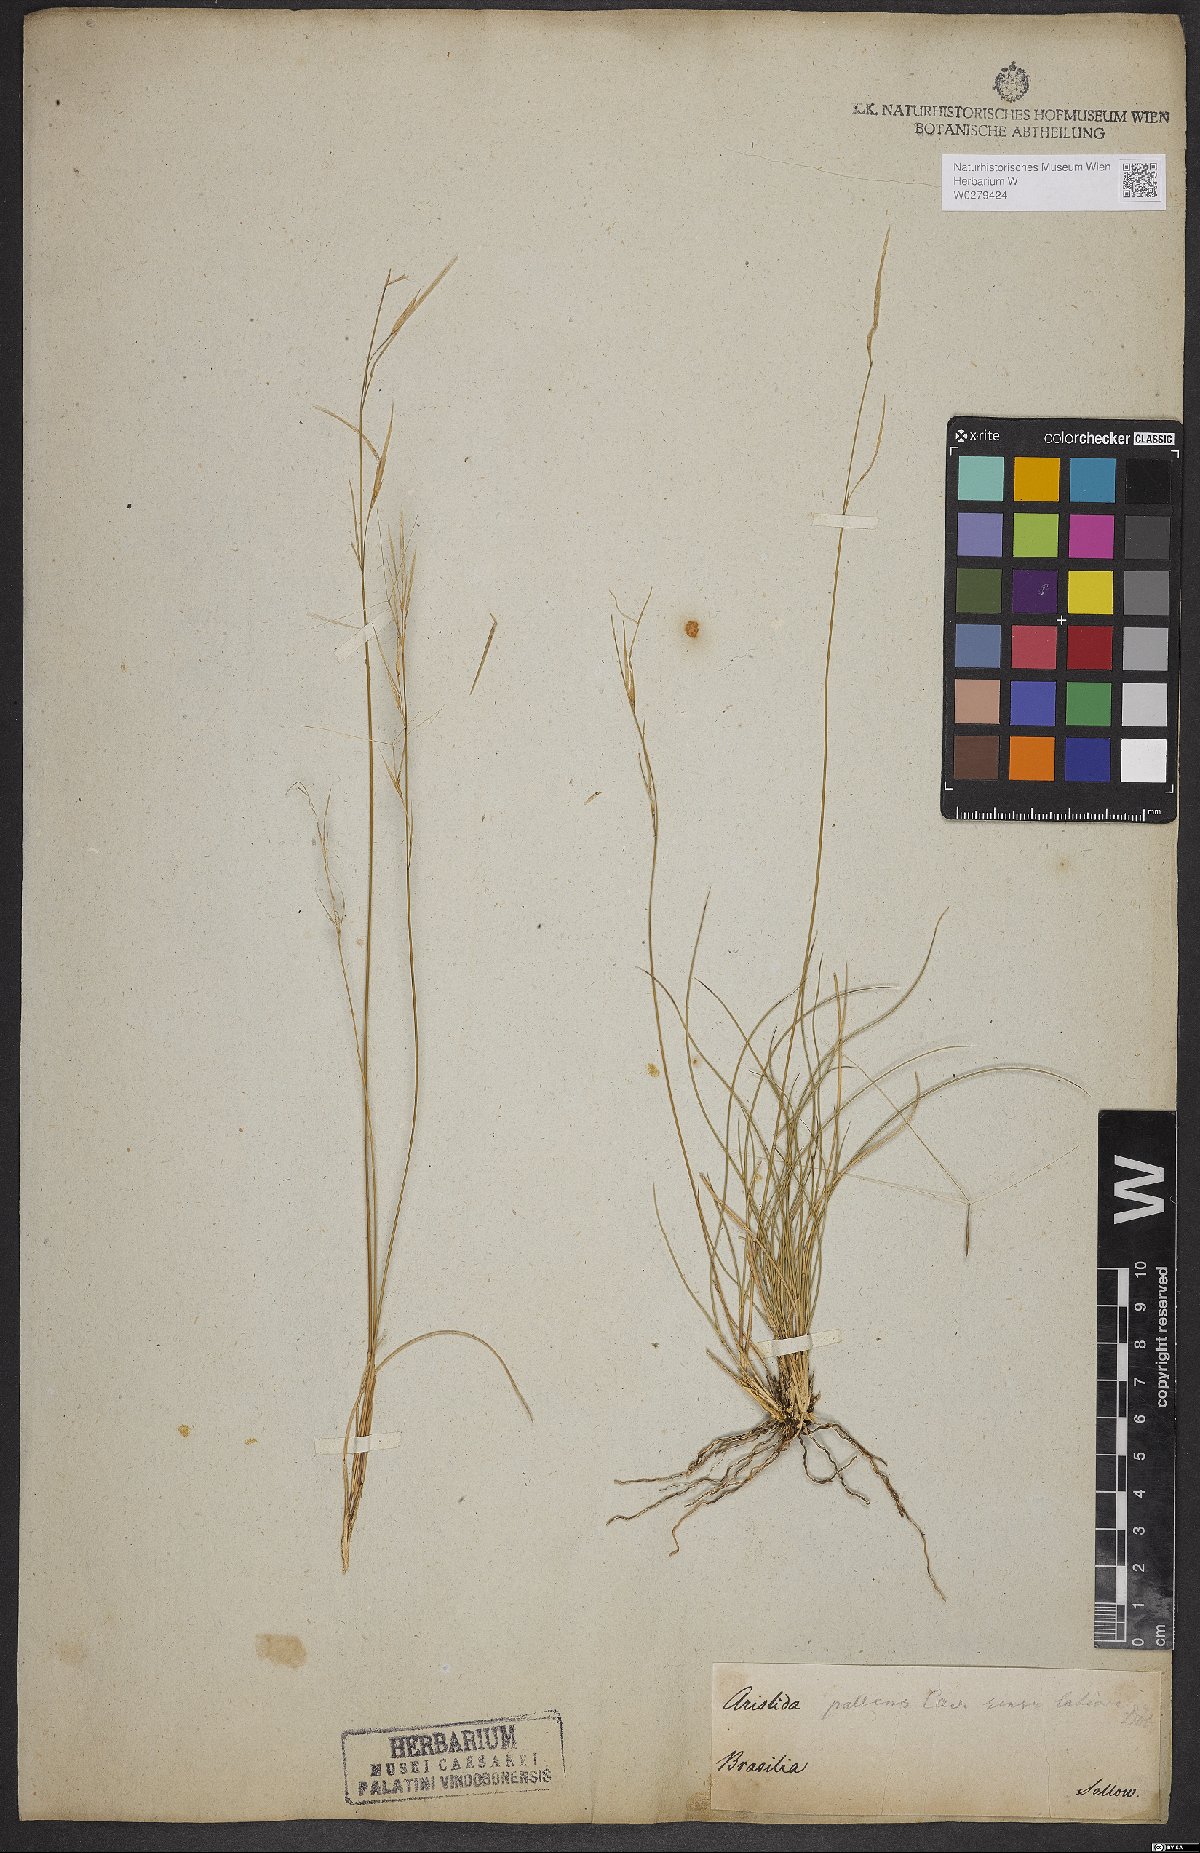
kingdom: Plantae
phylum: Tracheophyta
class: Liliopsida
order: Poales
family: Poaceae
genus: Aristida
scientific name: Aristida pallens
